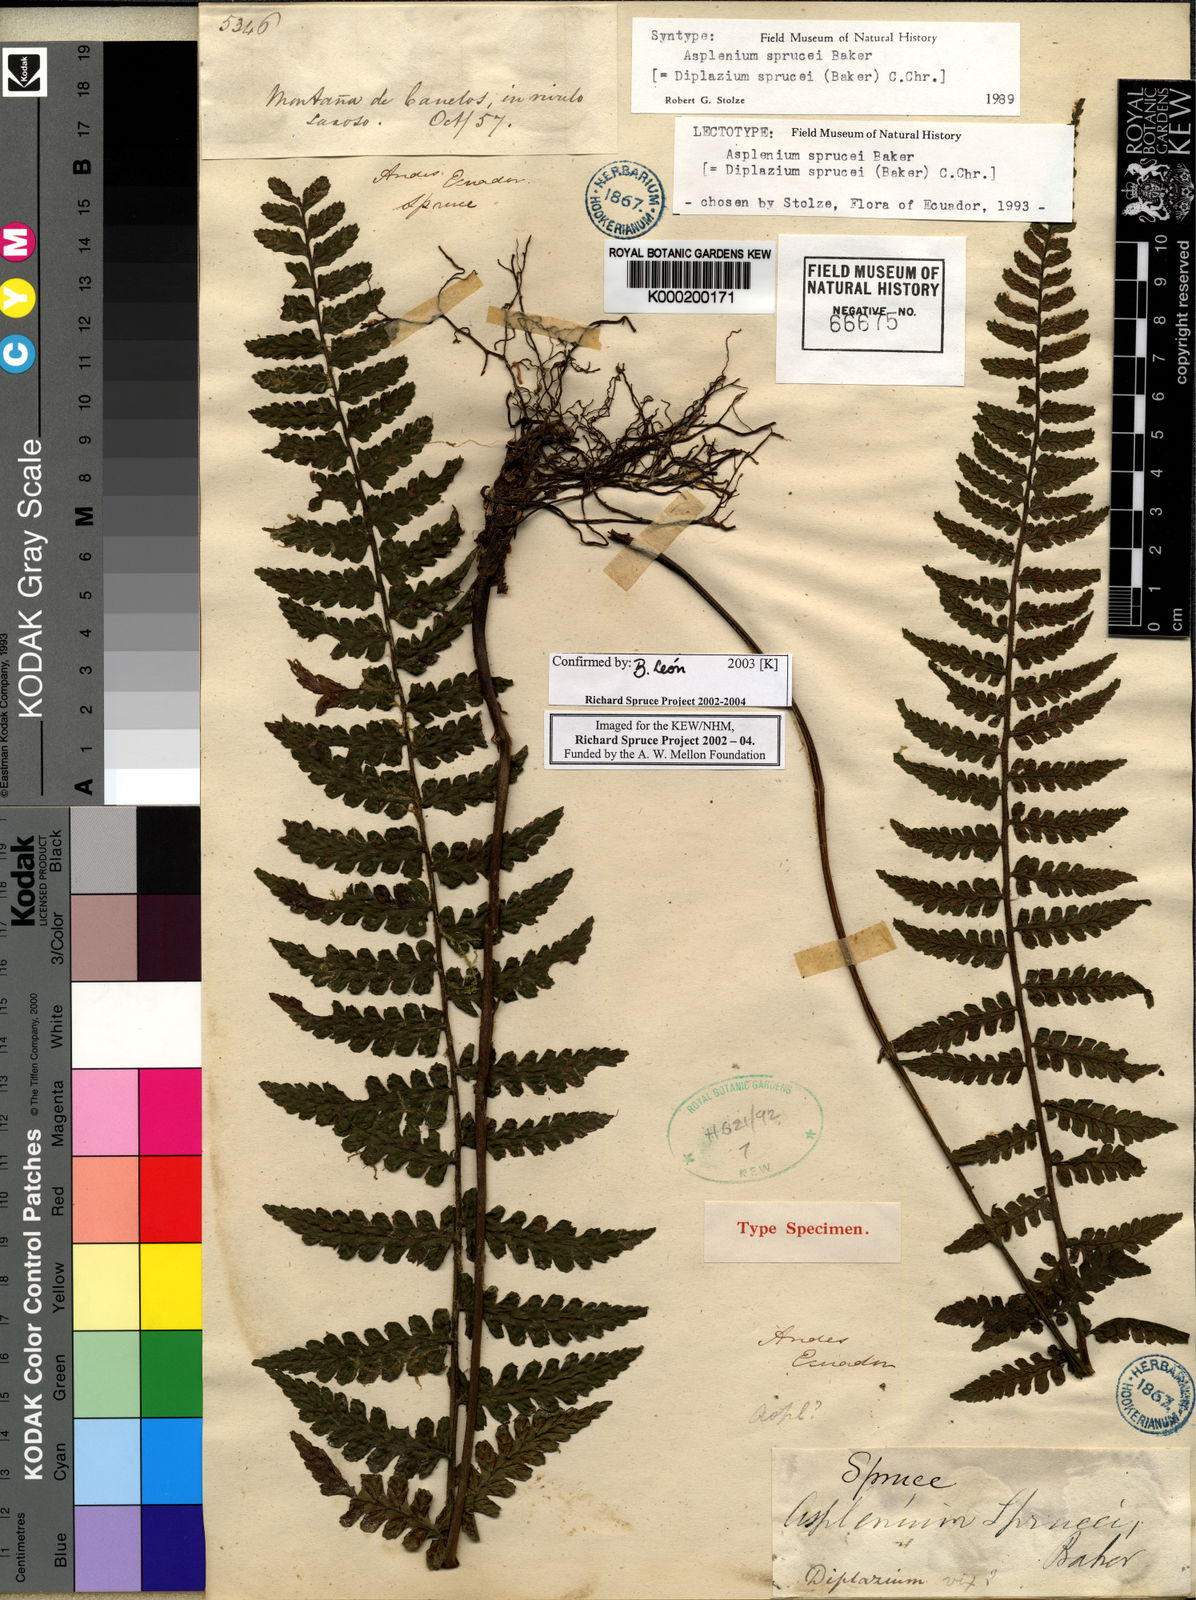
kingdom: Plantae
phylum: Tracheophyta
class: Polypodiopsida
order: Polypodiales
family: Athyriaceae
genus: Diplazium
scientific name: Diplazium sprucei
